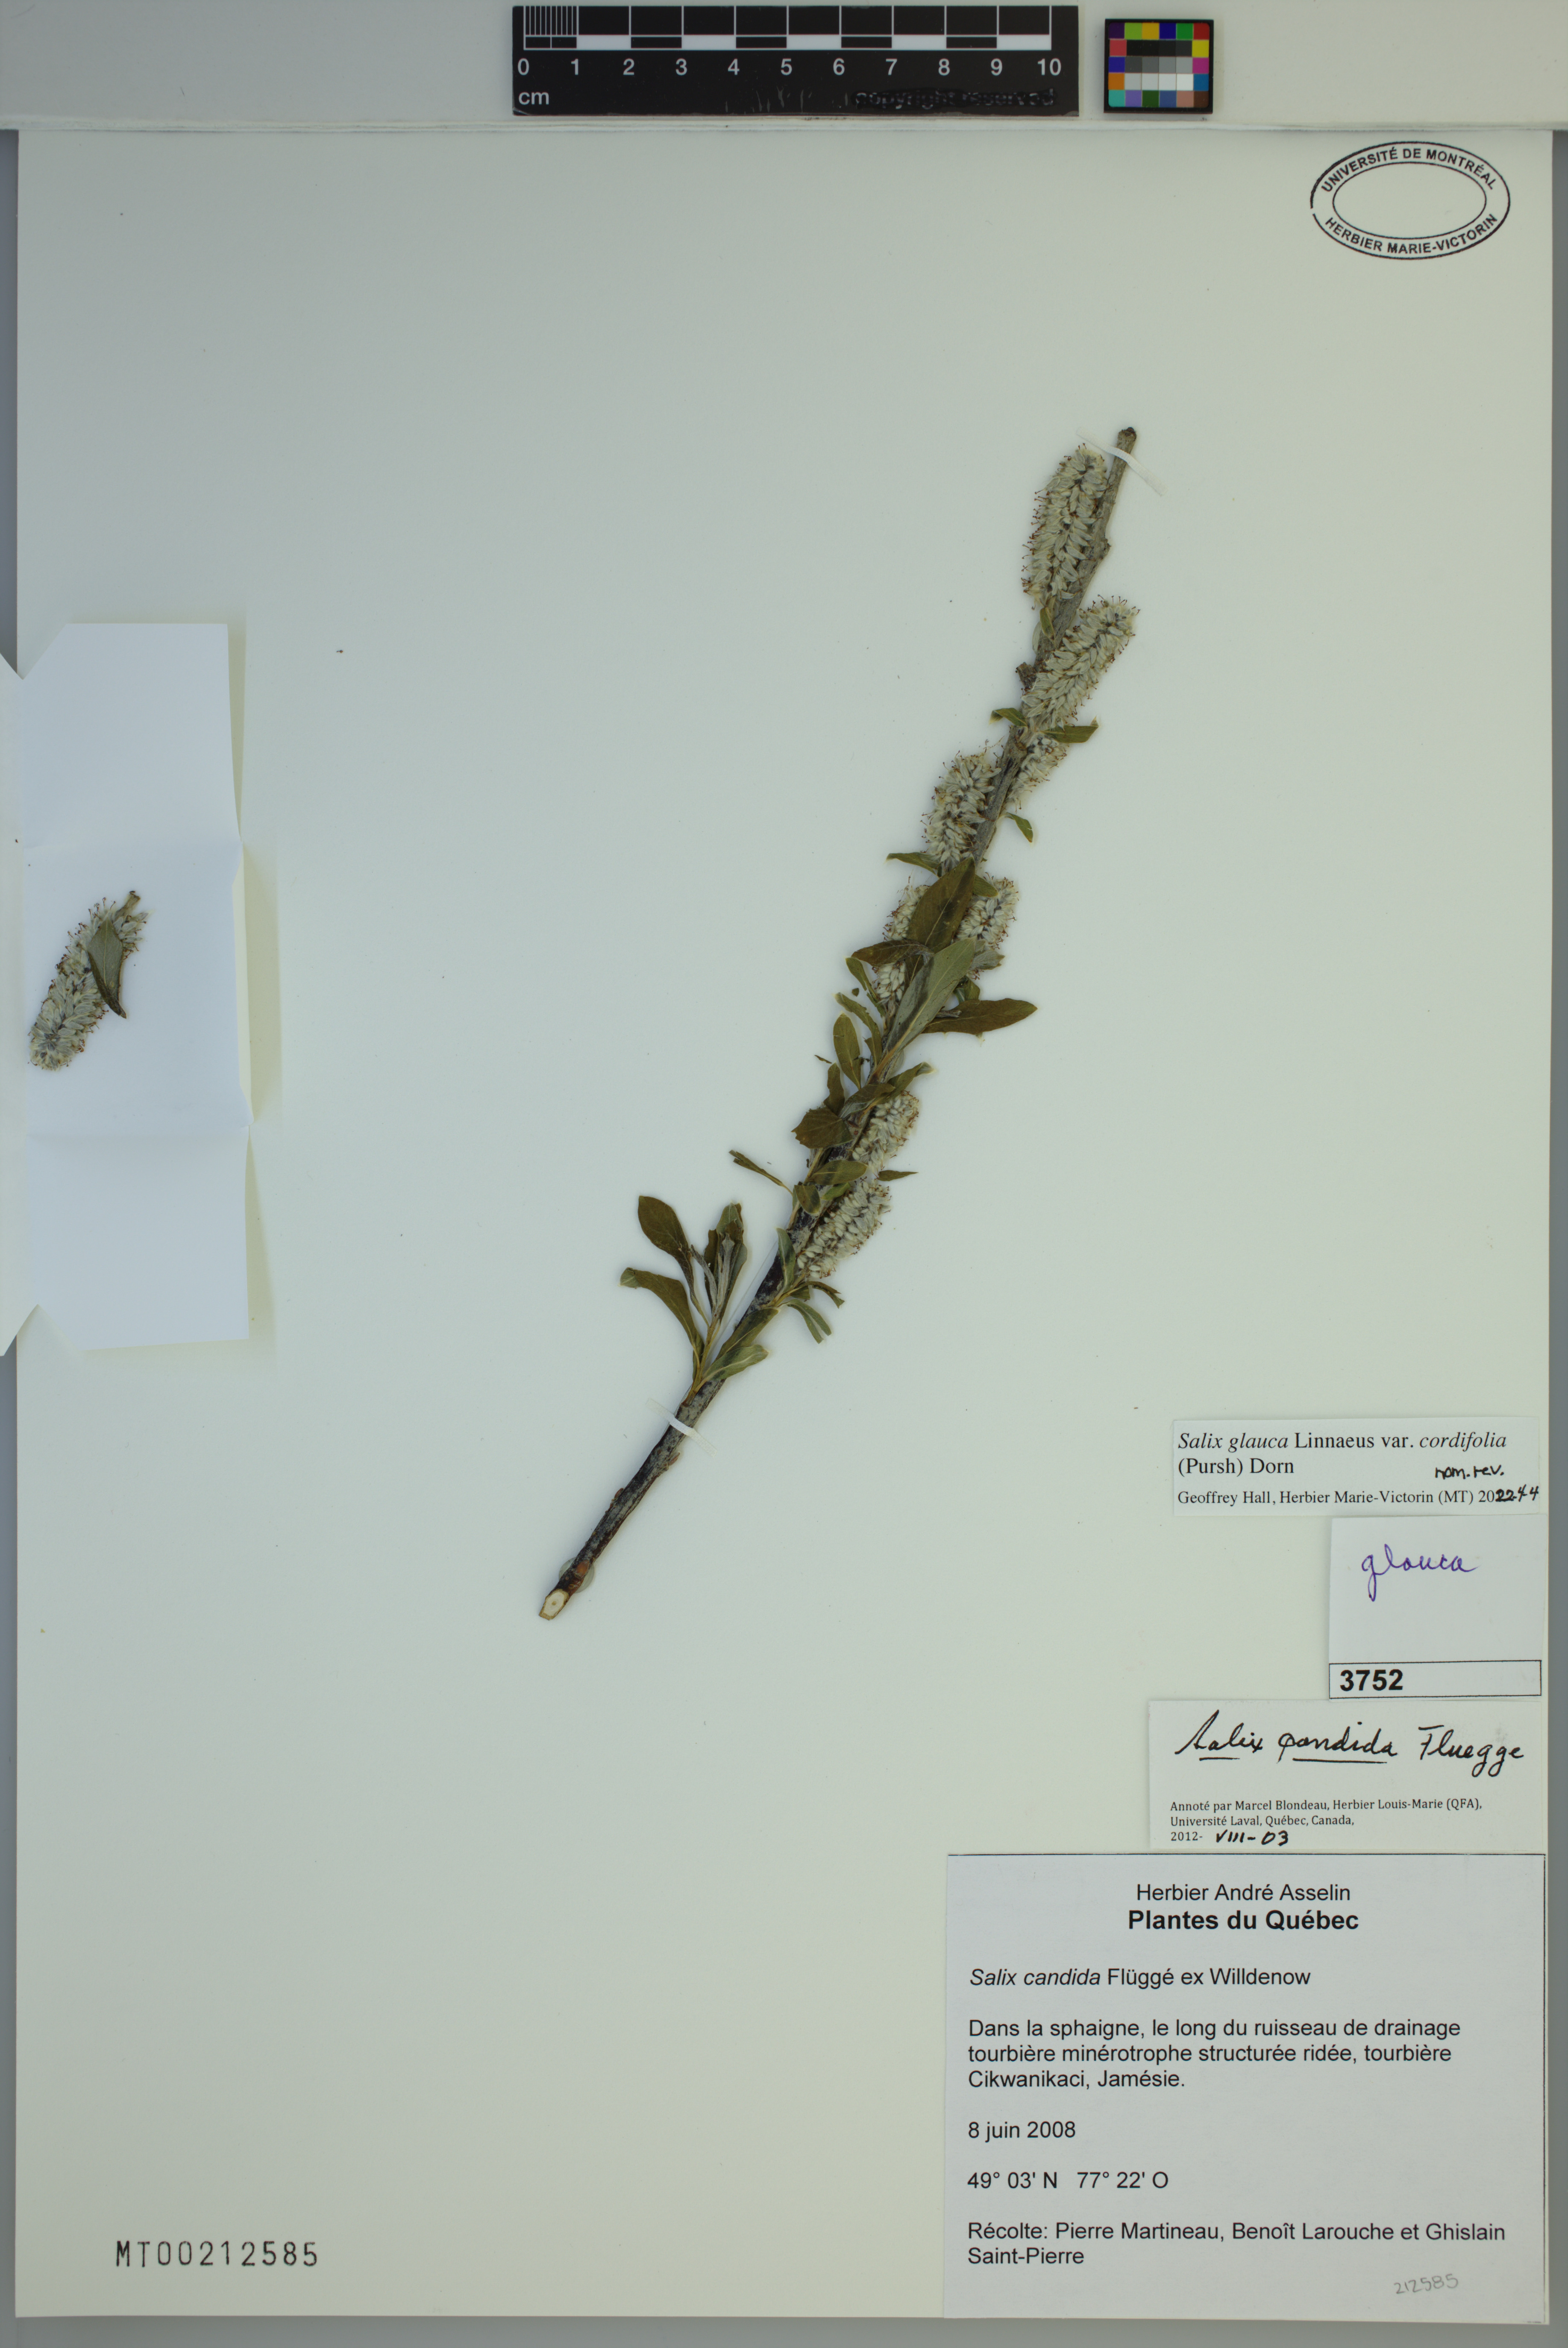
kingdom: Plantae
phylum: Tracheophyta
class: Magnoliopsida
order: Malpighiales
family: Salicaceae
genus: Salix
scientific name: Salix glauca
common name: Glaucous willow
